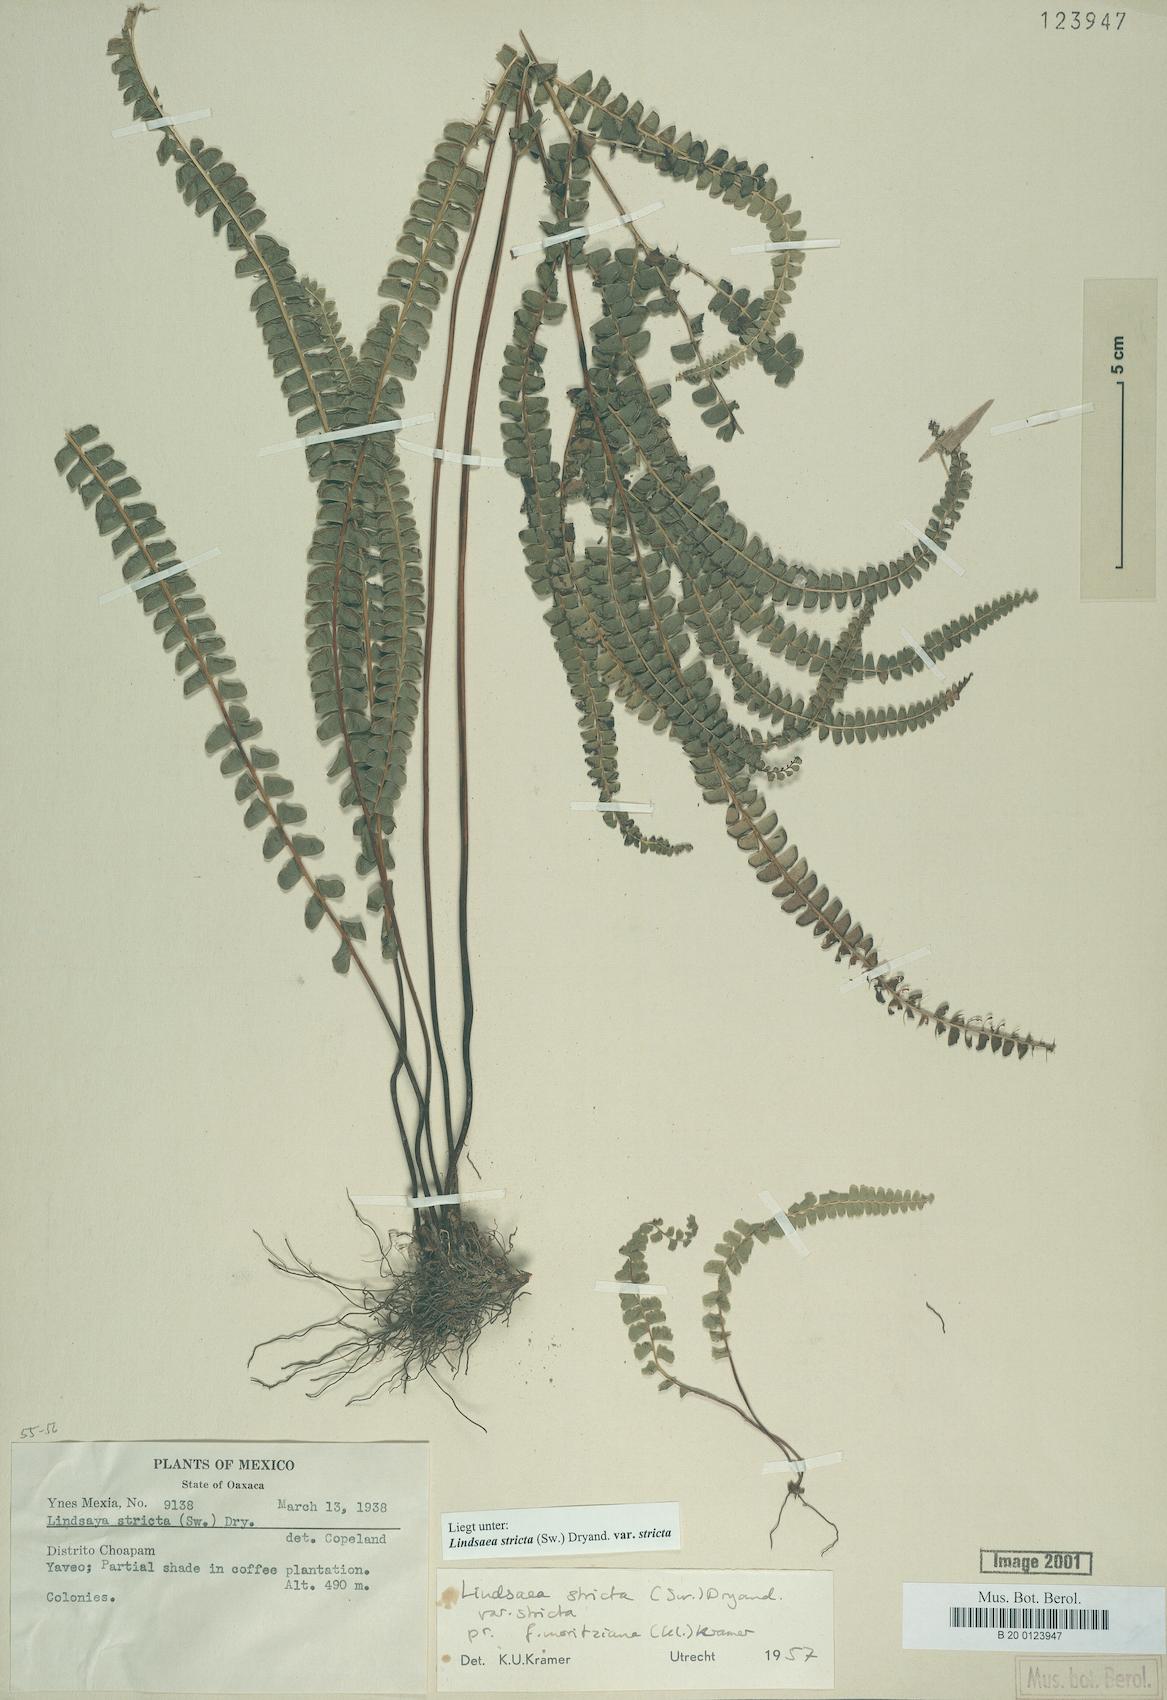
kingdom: Plantae
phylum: Tracheophyta
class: Polypodiopsida
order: Polypodiales
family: Lindsaeaceae
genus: Lindsaea
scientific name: Lindsaea stricta
